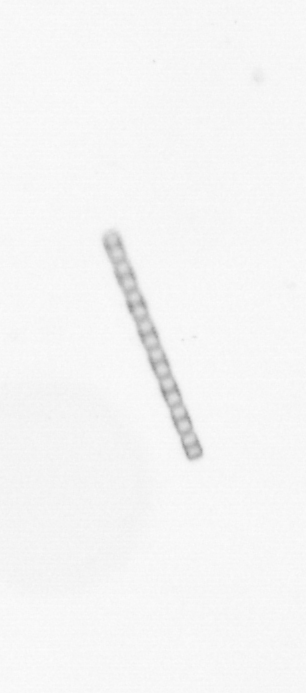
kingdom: Chromista
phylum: Ochrophyta
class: Bacillariophyceae
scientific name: Bacillariophyceae
